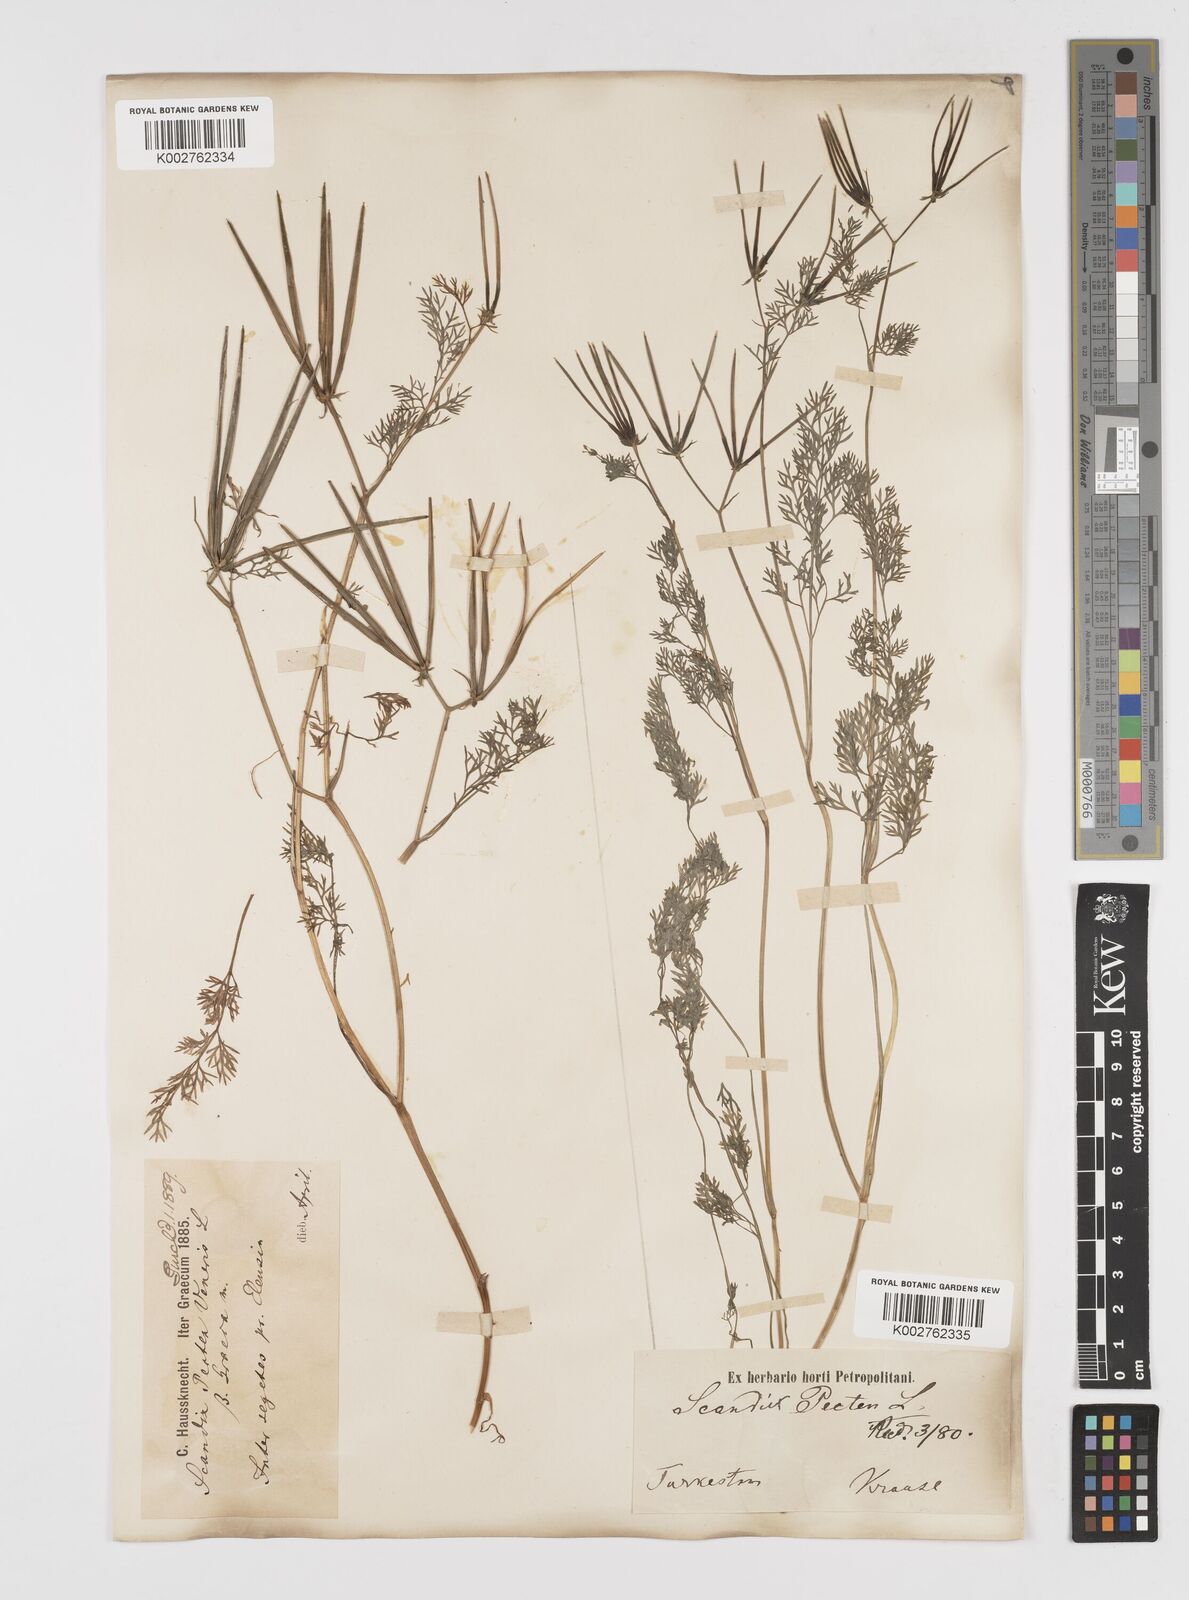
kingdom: Plantae
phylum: Tracheophyta
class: Magnoliopsida
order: Apiales
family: Apiaceae
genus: Scandix
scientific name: Scandix pecten-veneris
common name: Shepherd's-needle
